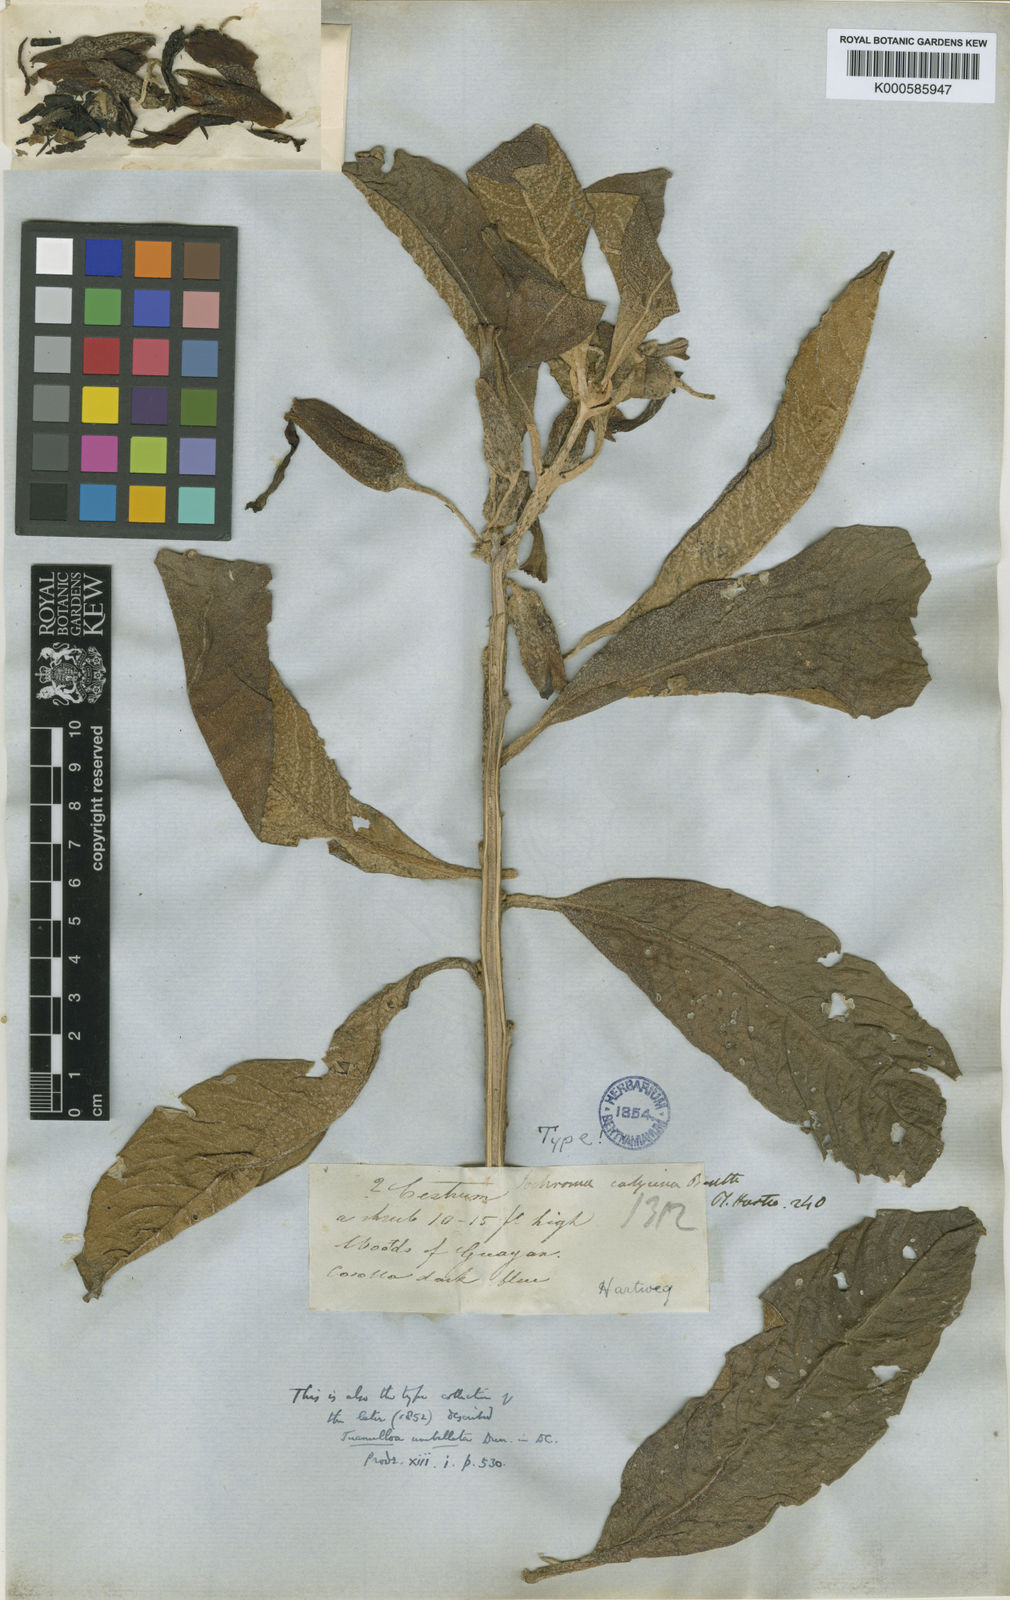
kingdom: Plantae
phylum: Tracheophyta
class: Magnoliopsida
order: Solanales
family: Solanaceae
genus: Iochroma
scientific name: Iochroma calycinum
